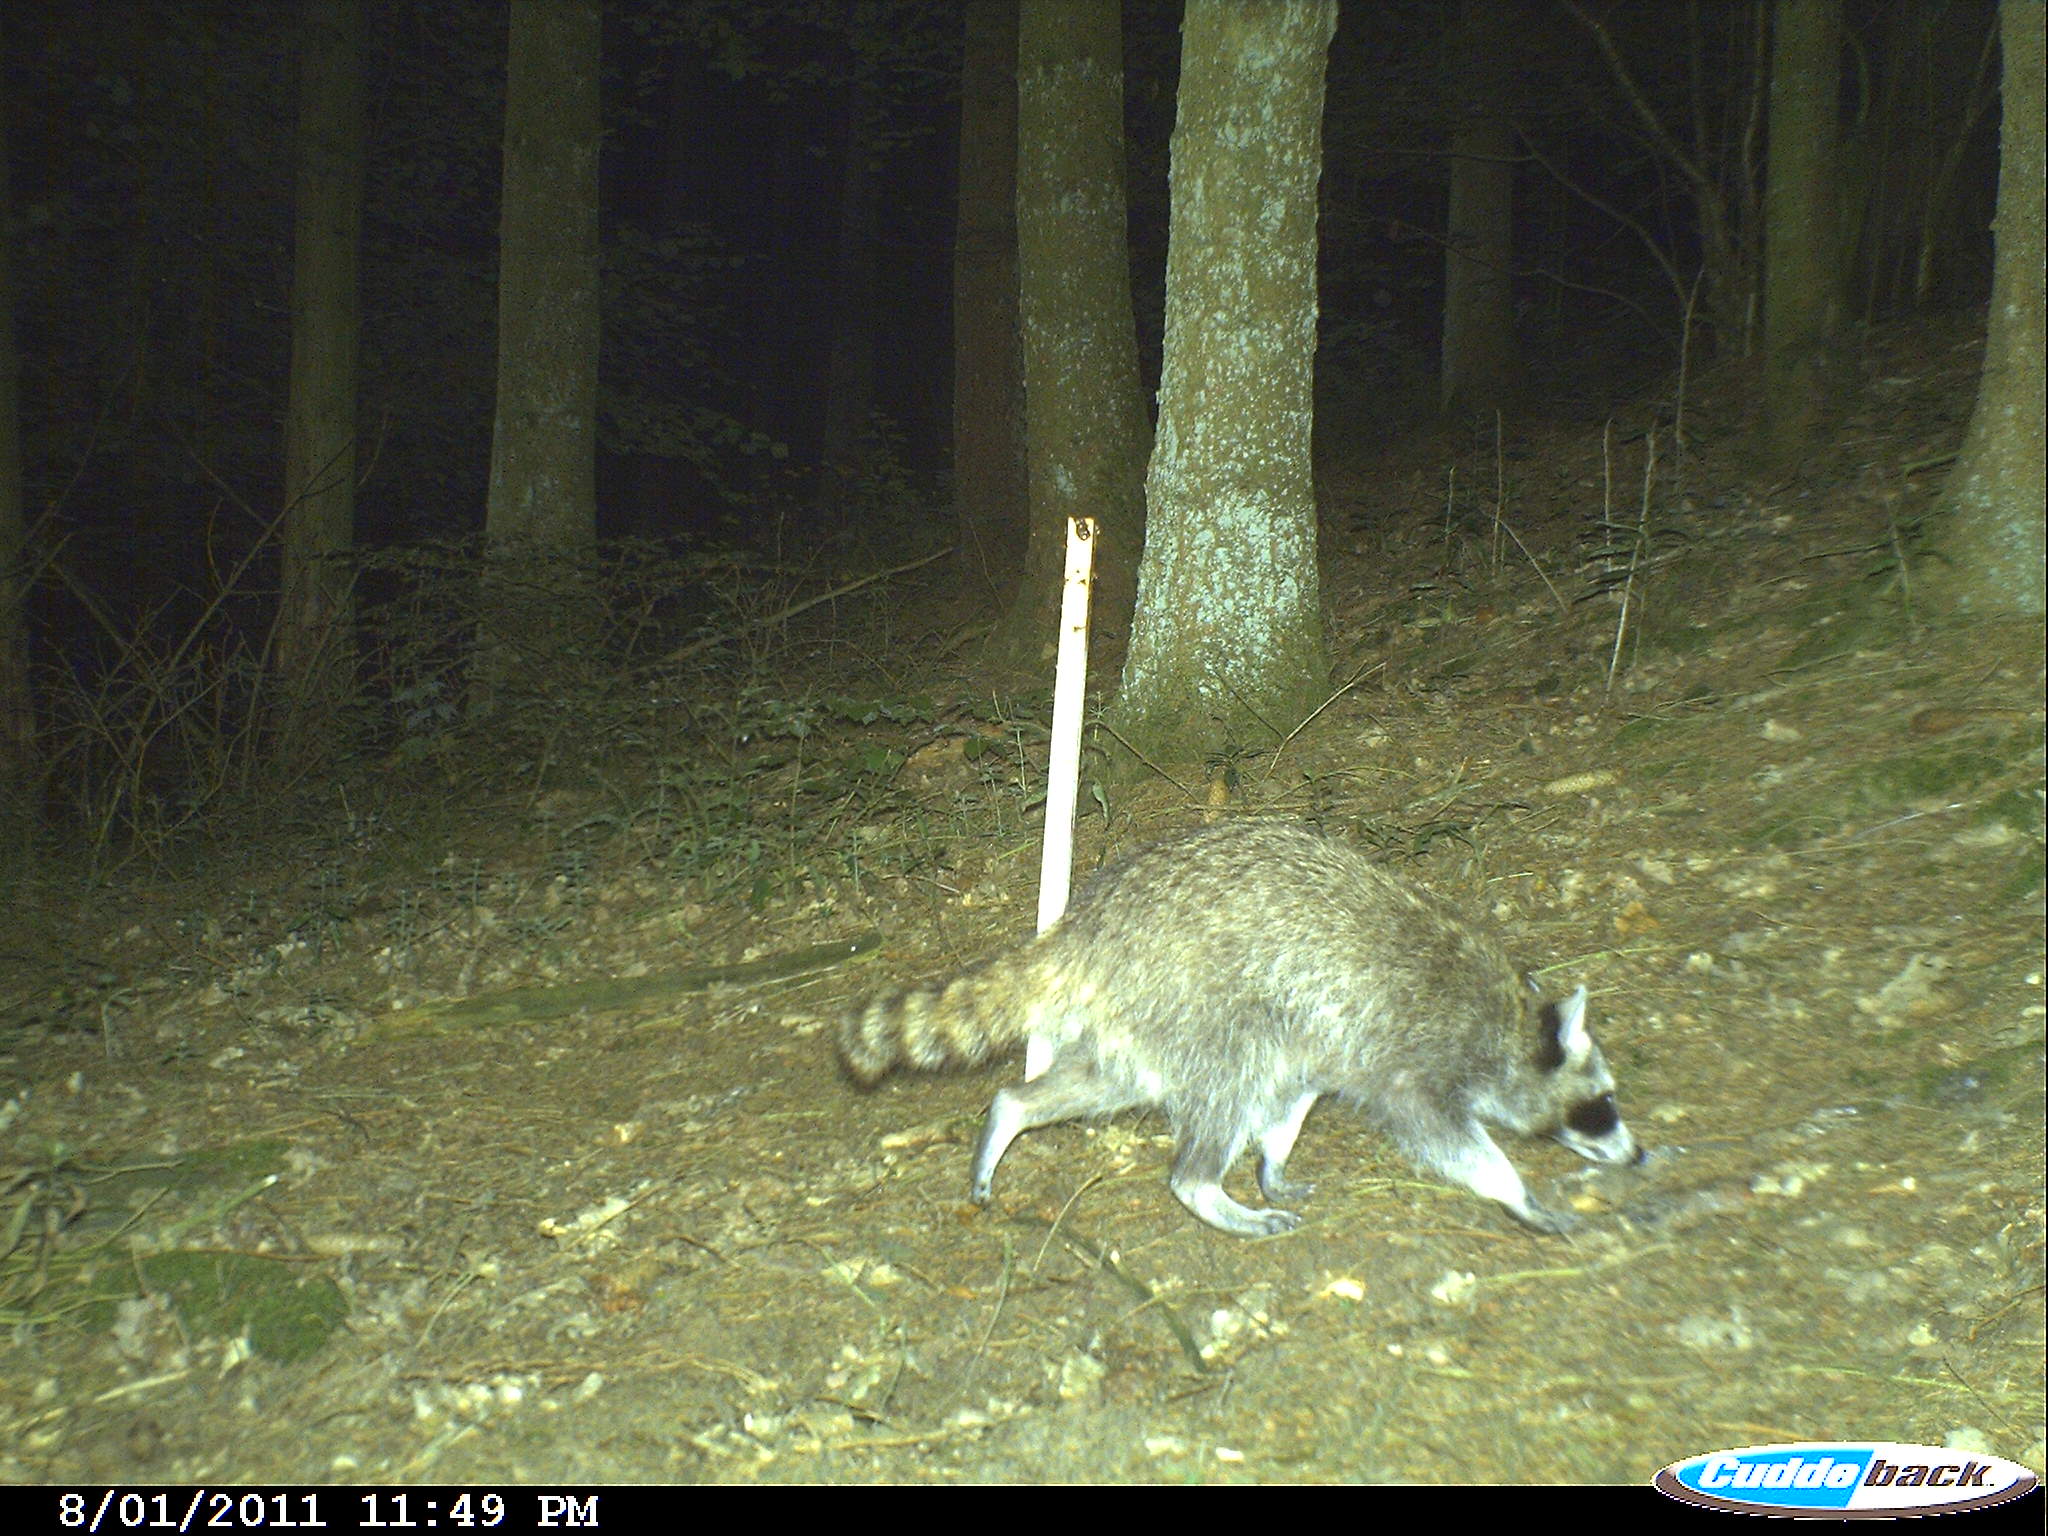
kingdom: Animalia
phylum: Chordata
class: Mammalia
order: Carnivora
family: Procyonidae
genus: Procyon
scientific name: Procyon lotor
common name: Raccoon
